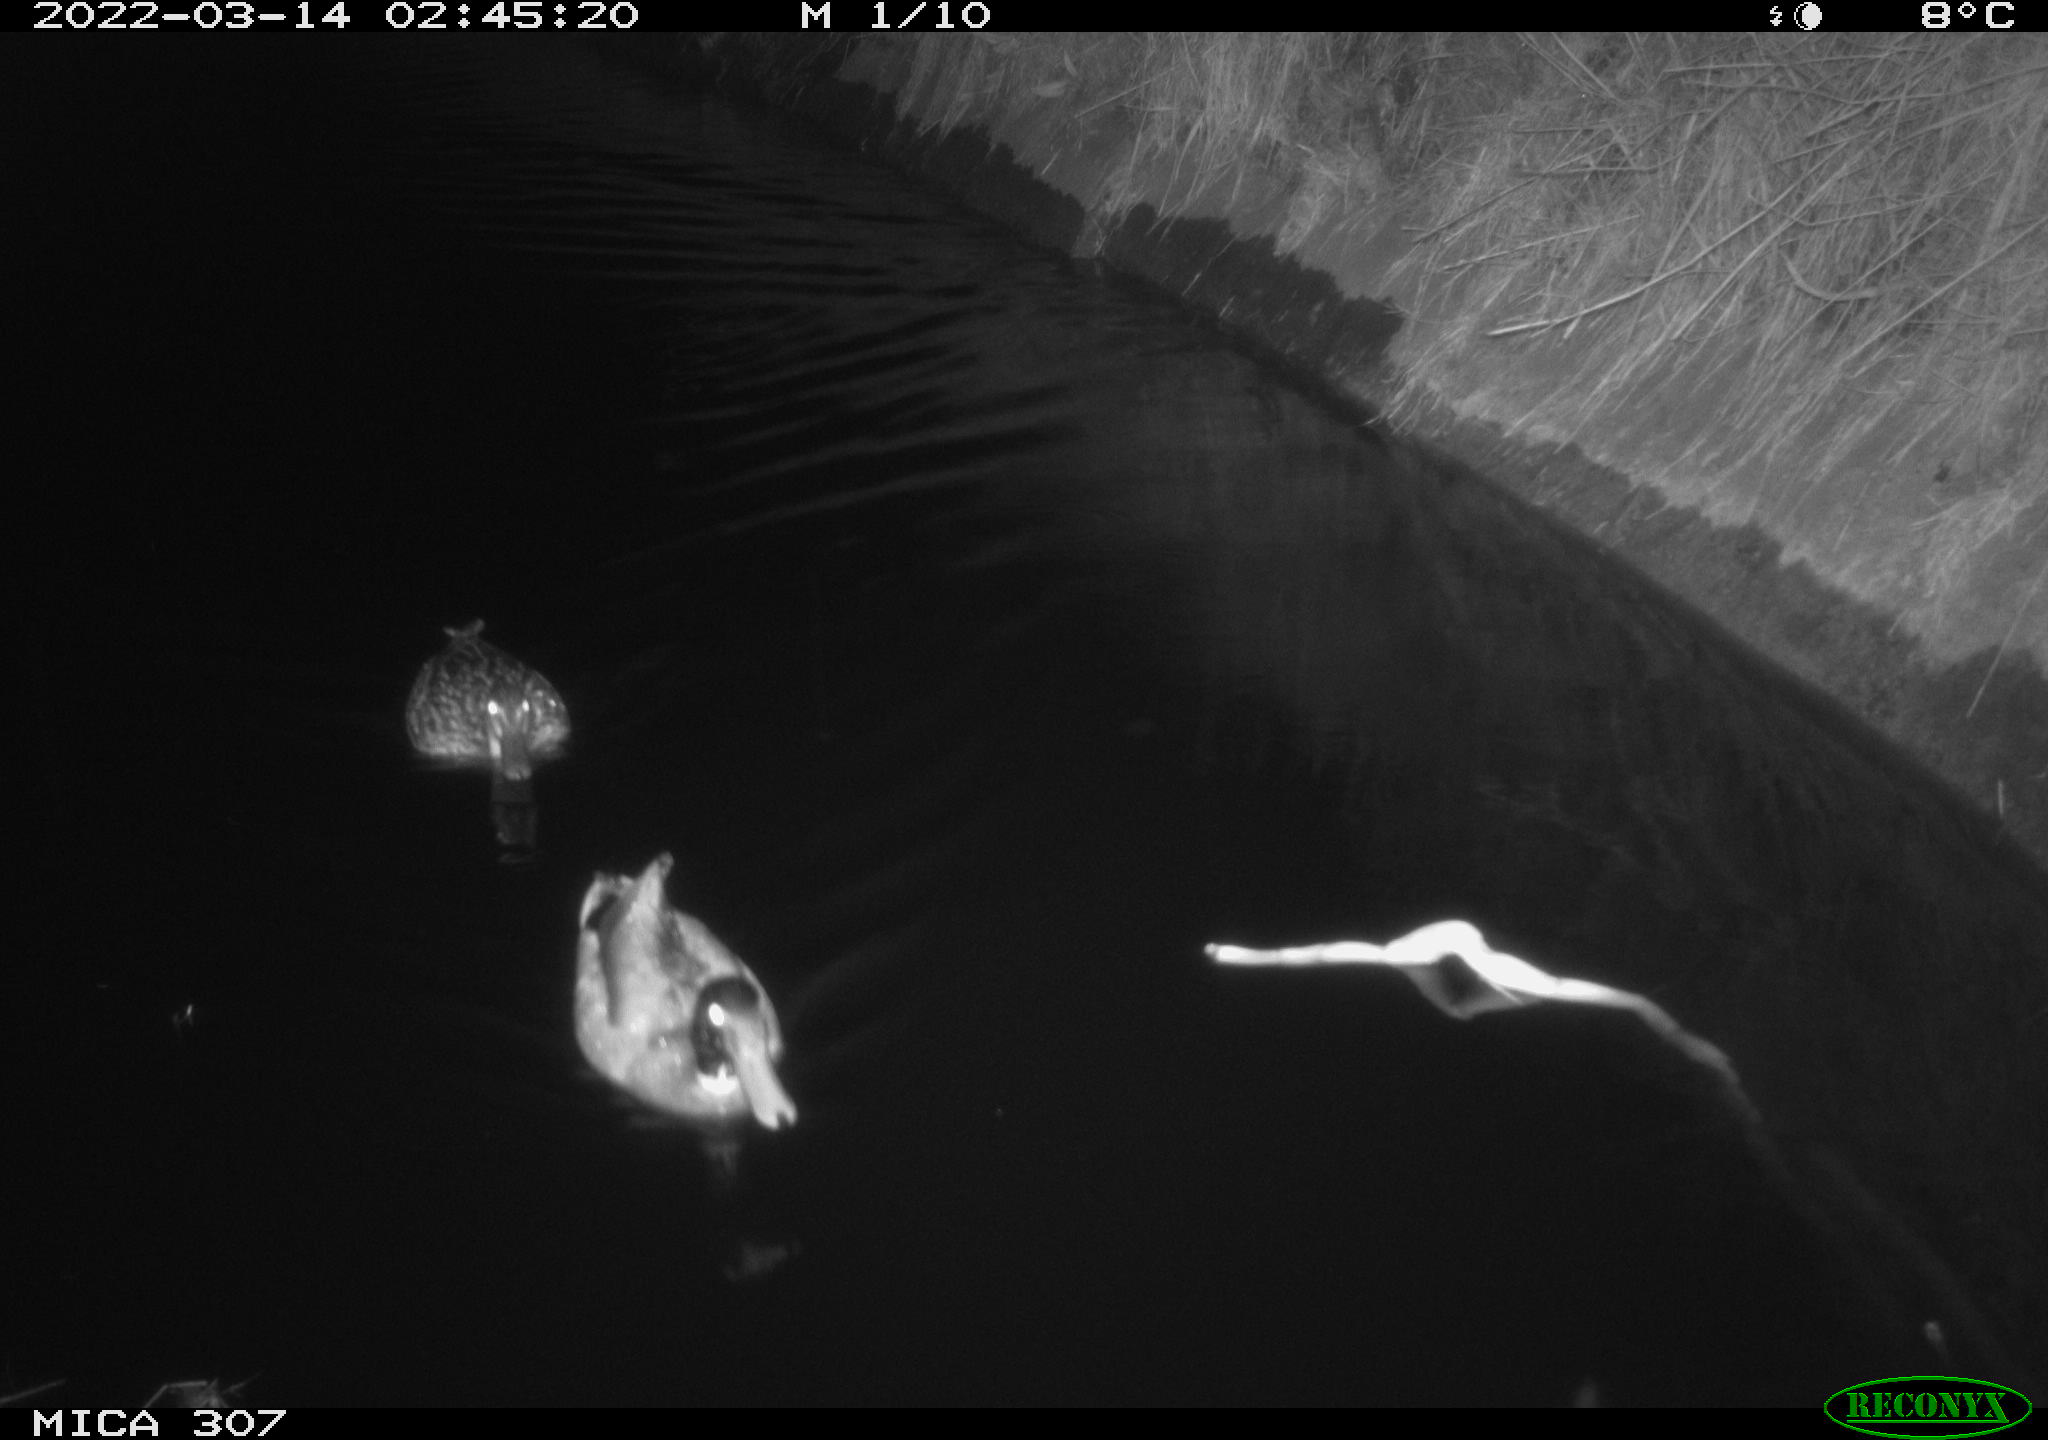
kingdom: Animalia
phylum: Chordata
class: Aves
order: Anseriformes
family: Anatidae
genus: Anas
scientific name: Anas platyrhynchos
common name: Mallard
